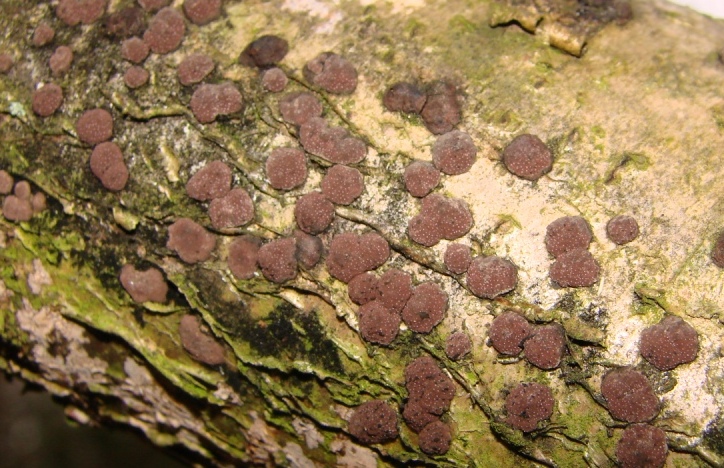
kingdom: Fungi
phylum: Ascomycota
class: Sordariomycetes
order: Xylariales
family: Hypoxylaceae
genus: Hypoxylon
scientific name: Hypoxylon fuscum
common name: kegleformet kulbær
